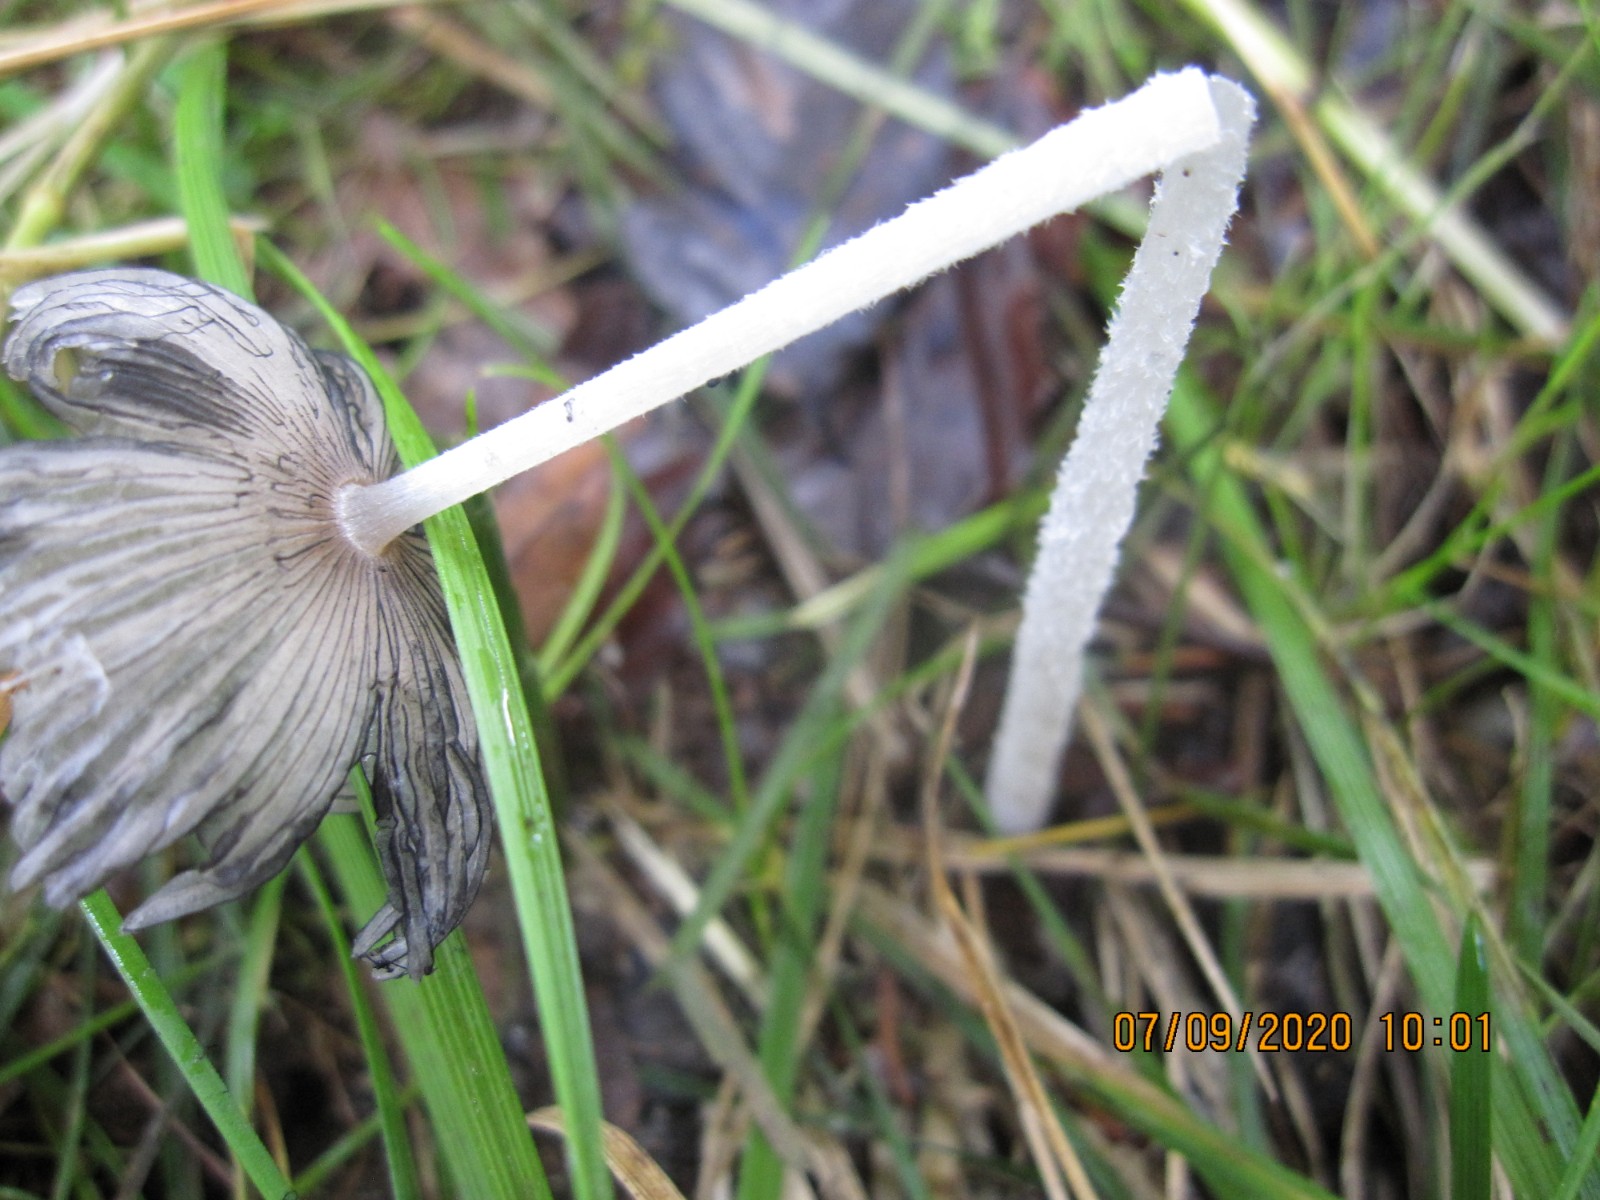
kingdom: Fungi
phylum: Basidiomycota
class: Agaricomycetes
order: Agaricales
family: Psathyrellaceae
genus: Coprinopsis
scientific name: Coprinopsis lagopus
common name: dunstokket blækhat
